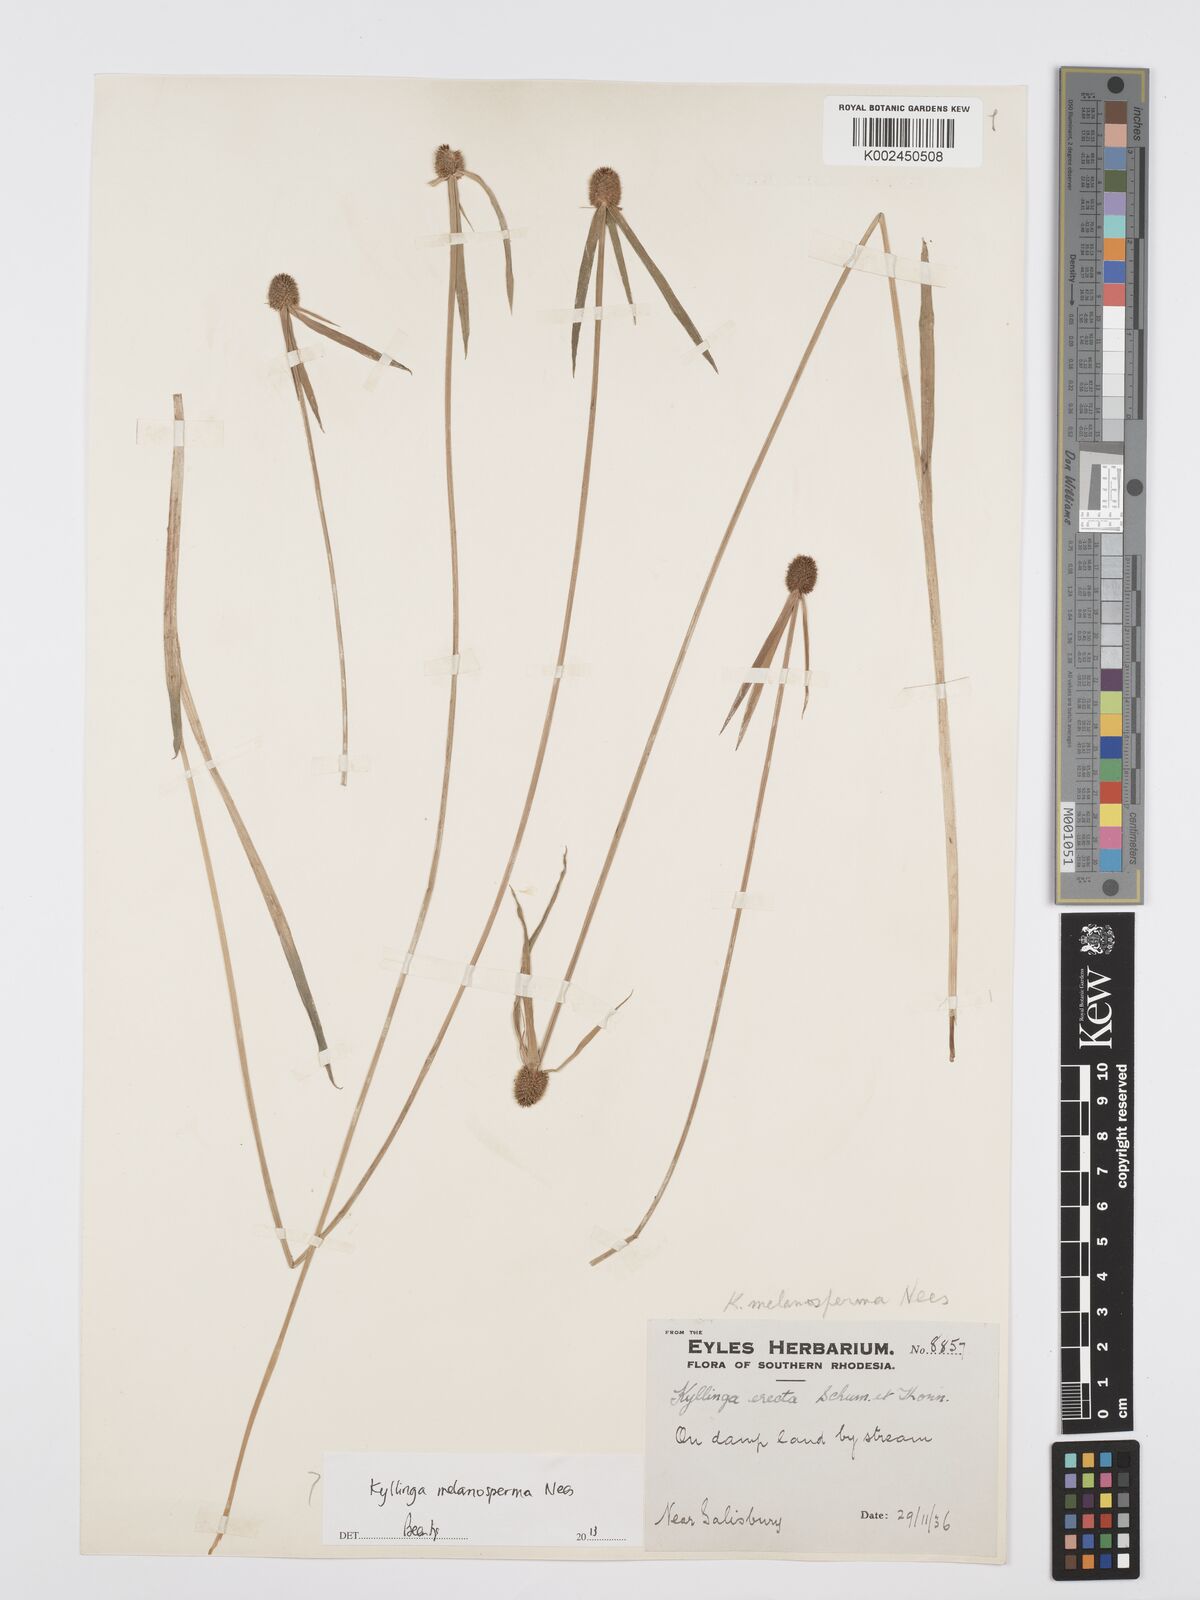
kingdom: Plantae
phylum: Tracheophyta
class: Liliopsida
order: Poales
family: Cyperaceae
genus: Cyperus
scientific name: Cyperus melanospermus
